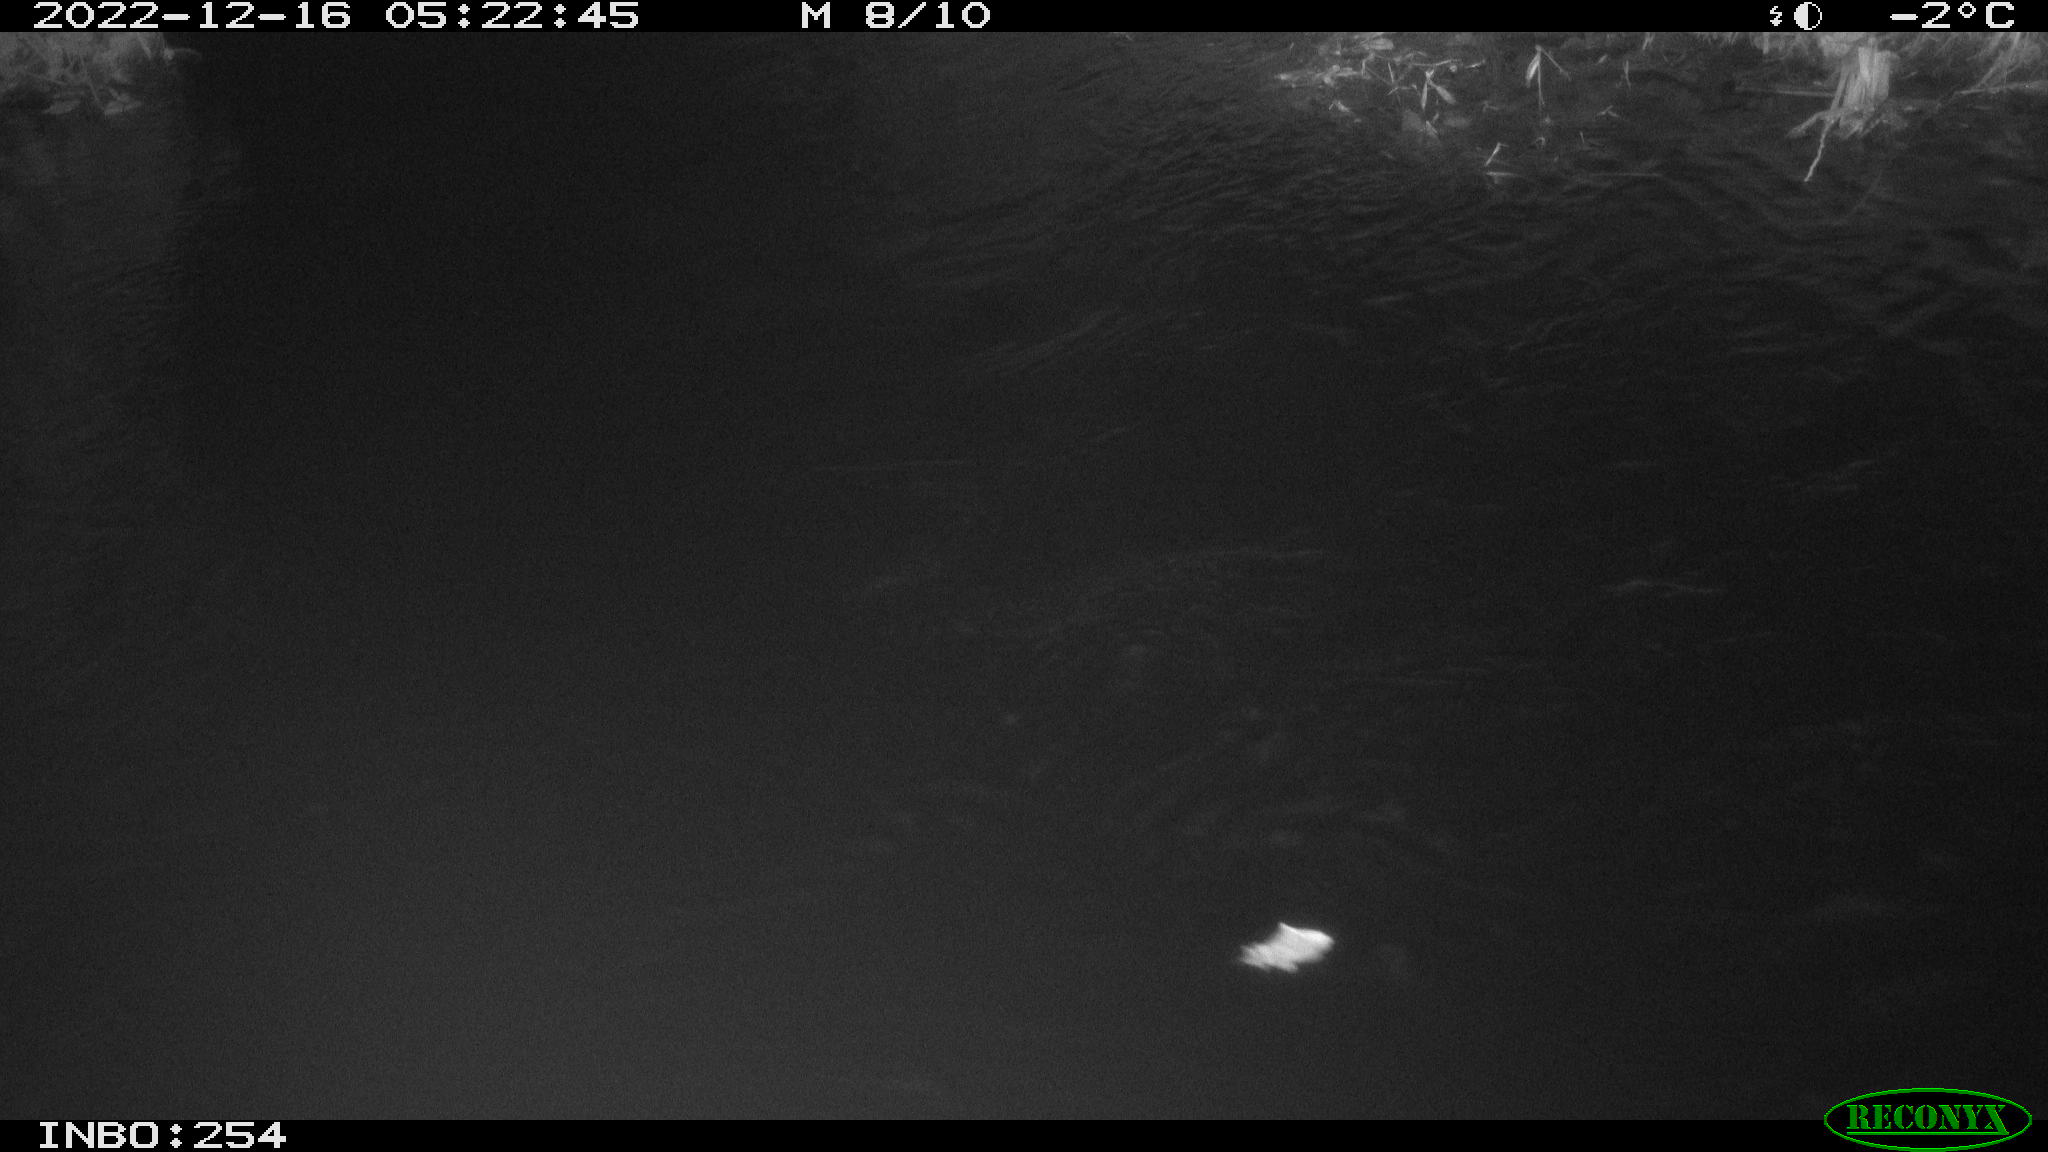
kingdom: Animalia
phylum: Chordata
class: Aves
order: Anseriformes
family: Anatidae
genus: Anas
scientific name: Anas
